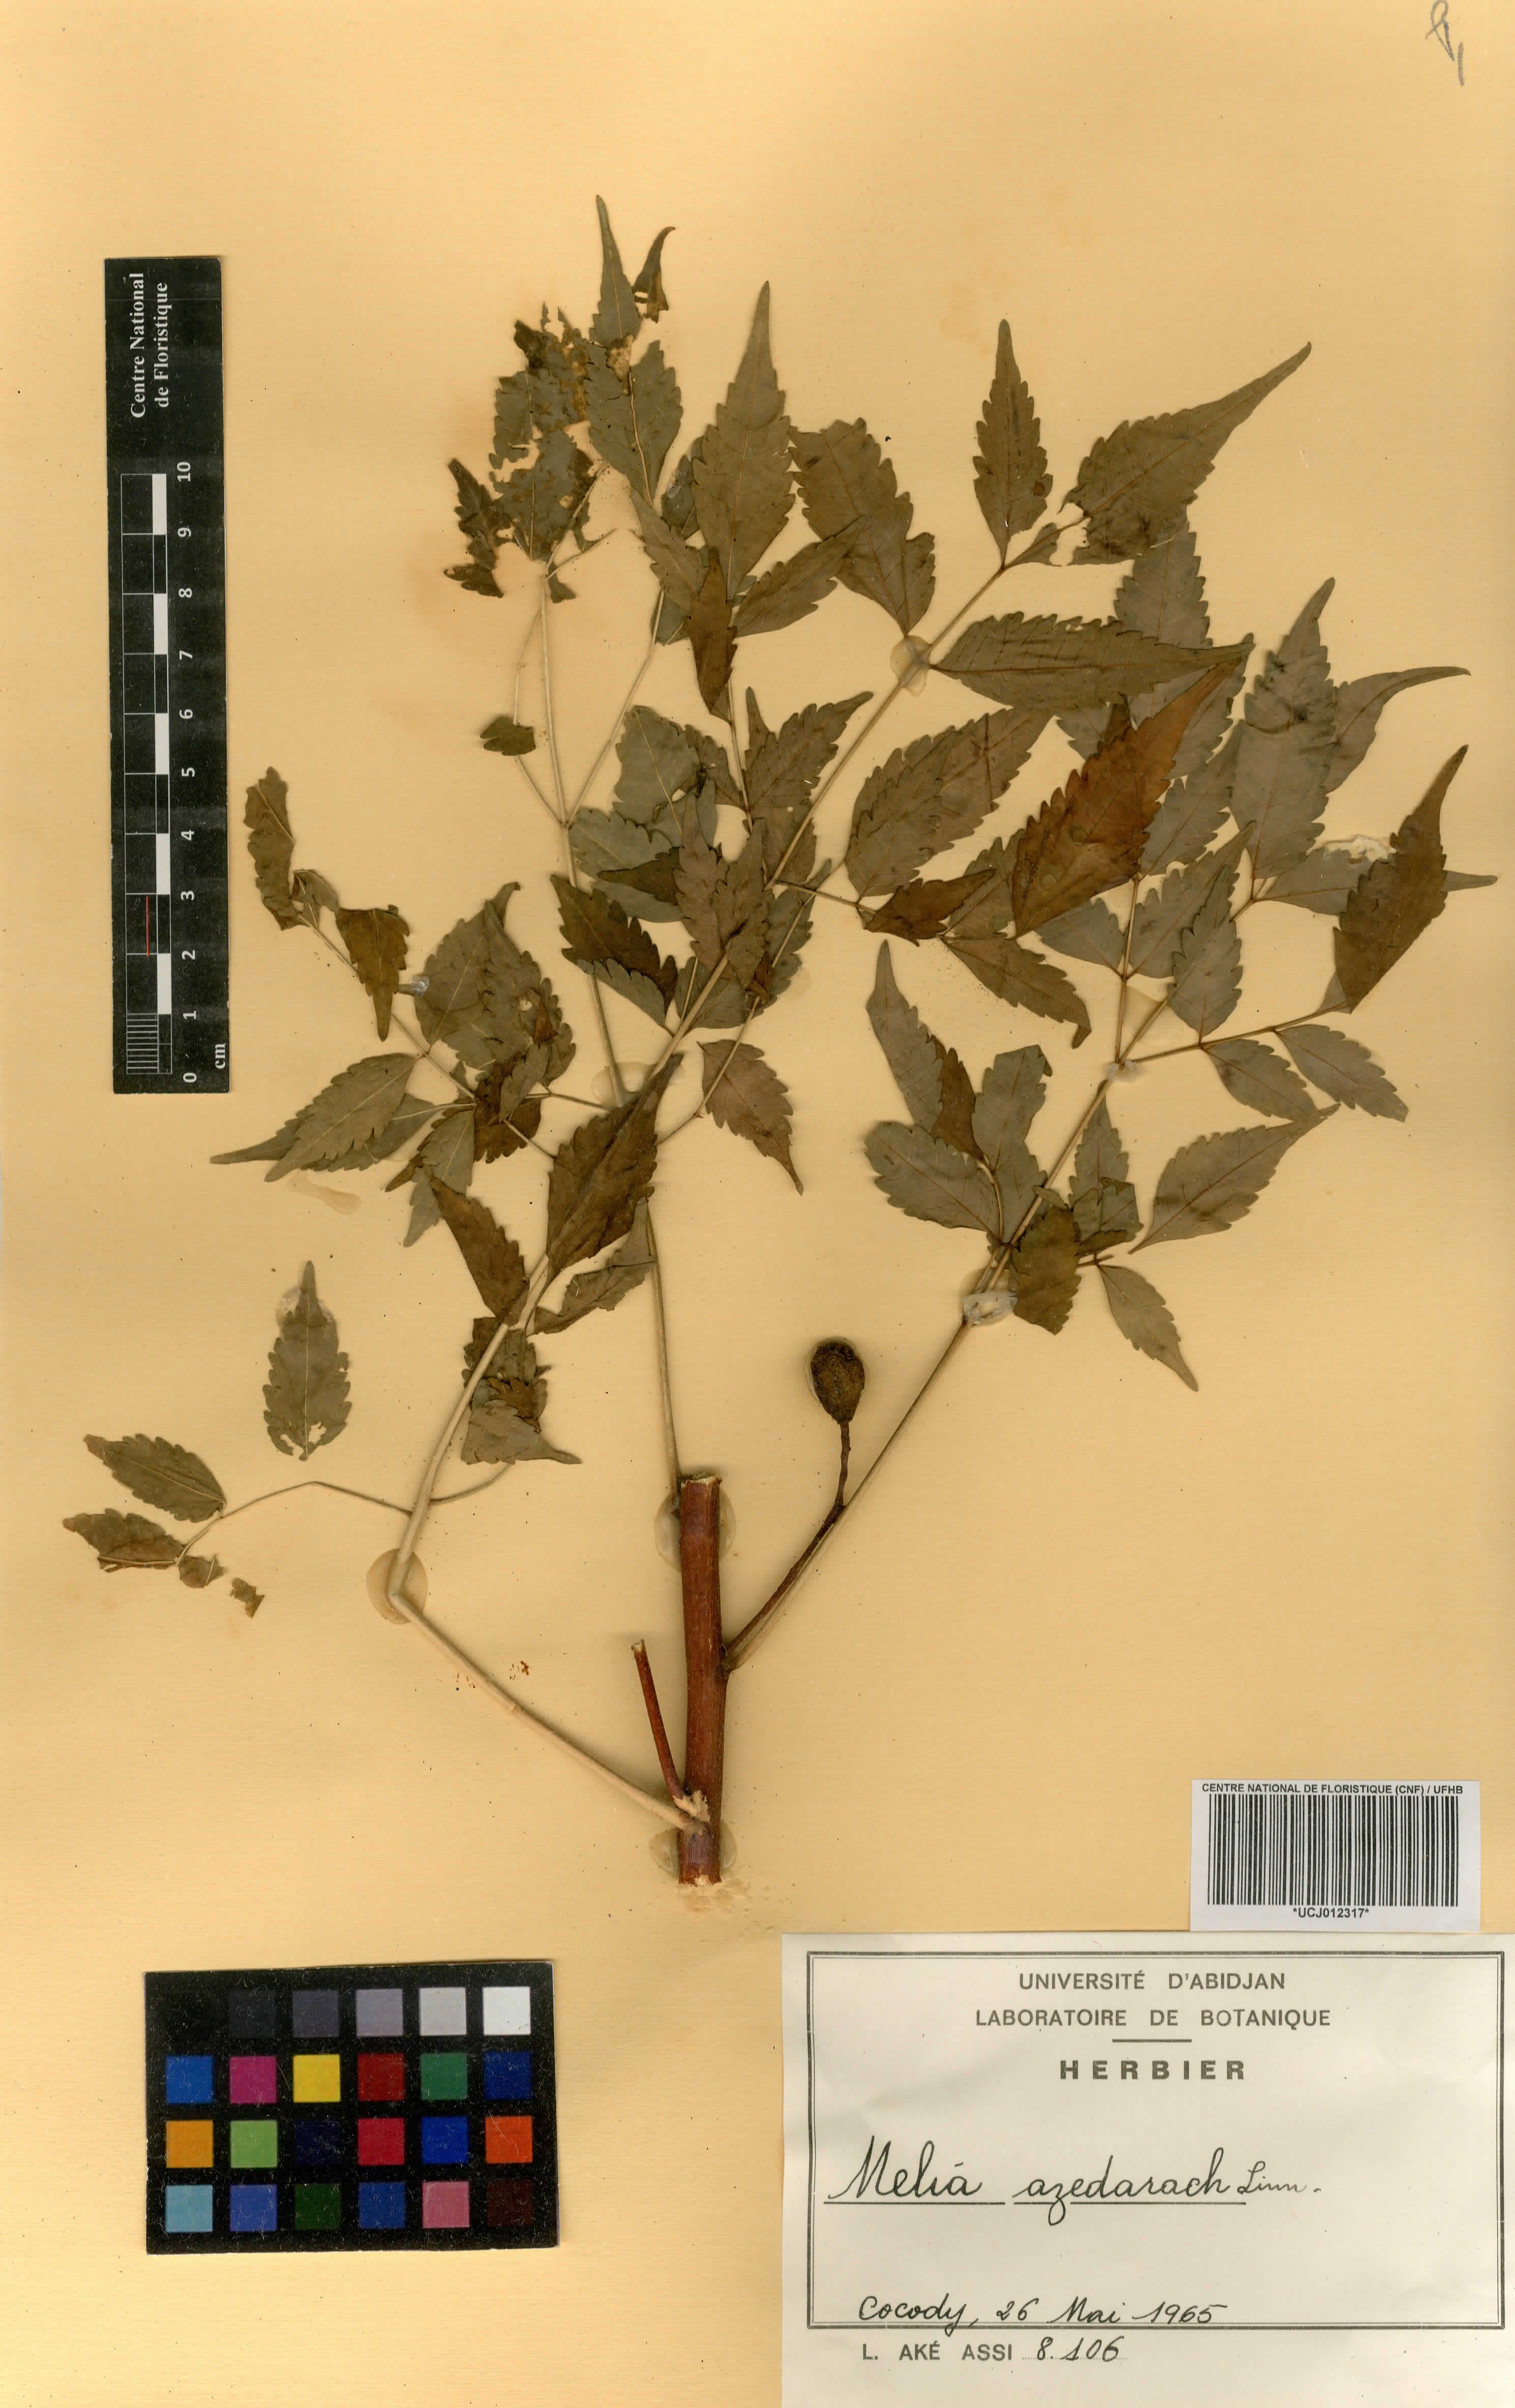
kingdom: Plantae
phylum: Tracheophyta
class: Magnoliopsida
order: Sapindales
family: Meliaceae
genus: Melia
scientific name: Melia azedarach
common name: Chinaberrytree
